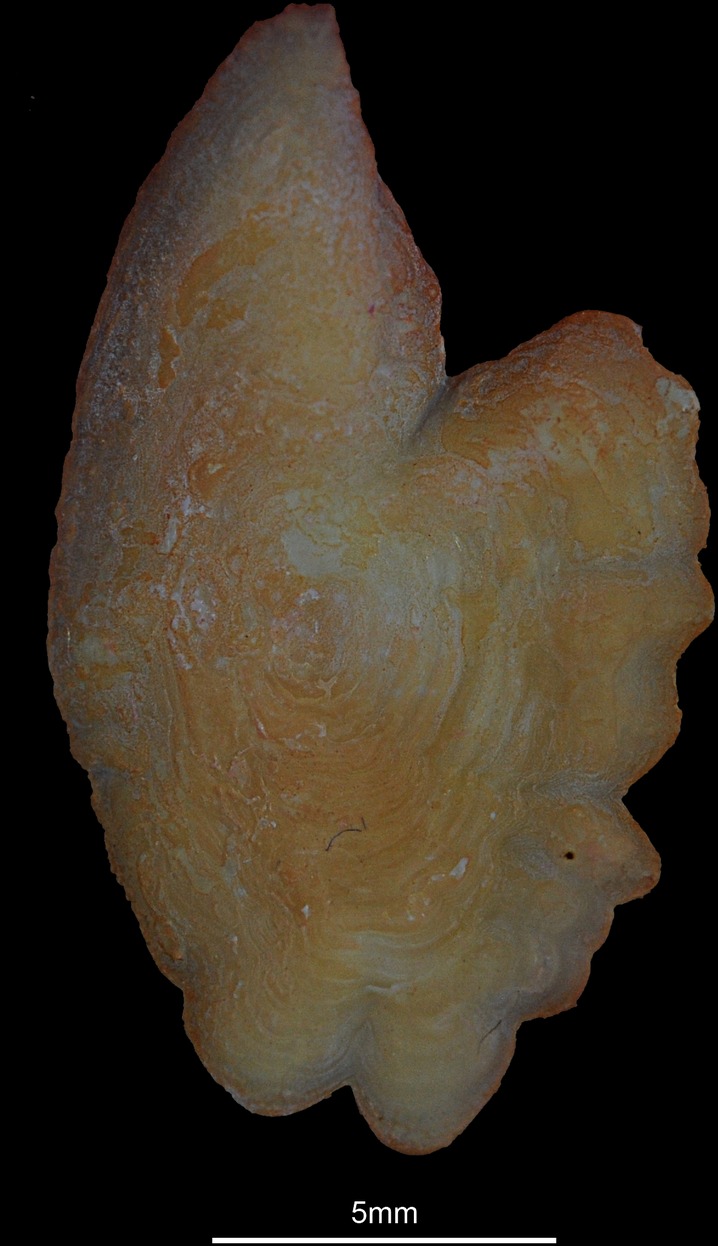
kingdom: Animalia
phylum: Chordata
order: Scorpaeniformes
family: Sebastidae
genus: Sebastes
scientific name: Sebastes norvegicus
